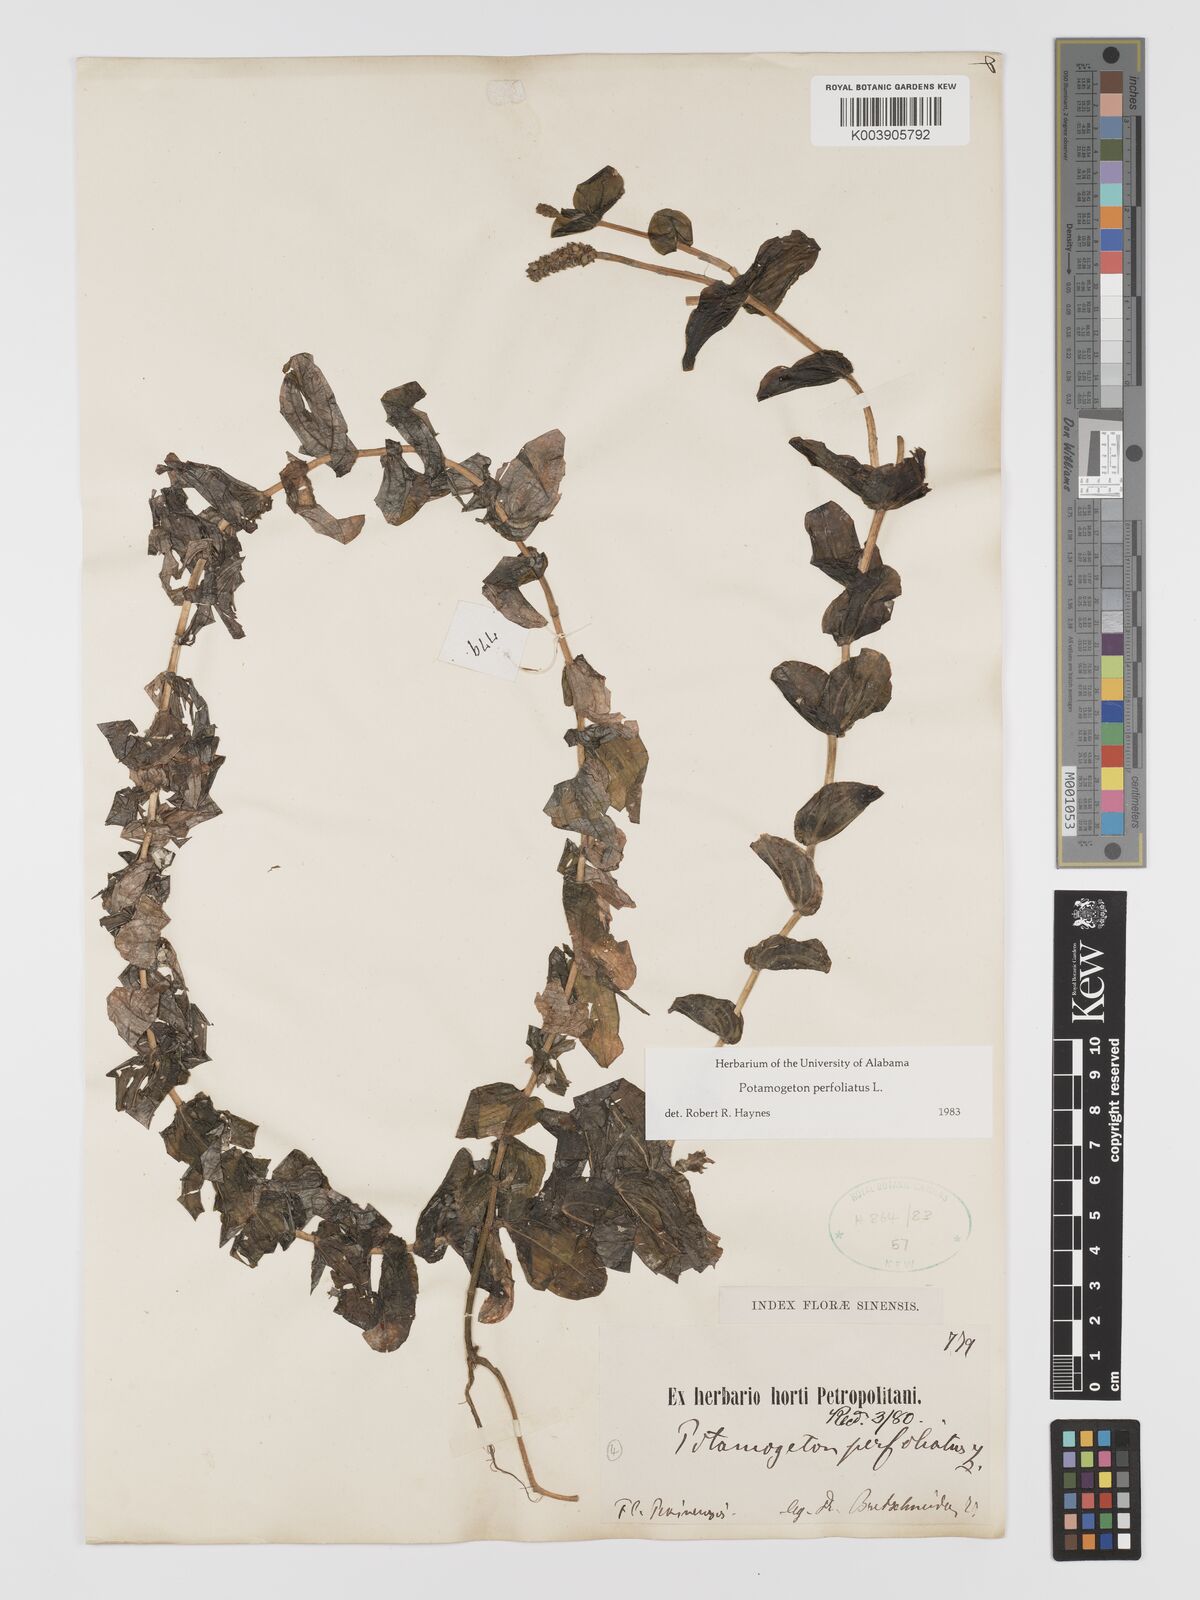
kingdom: Plantae
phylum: Tracheophyta
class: Liliopsida
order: Alismatales
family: Potamogetonaceae
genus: Potamogeton
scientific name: Potamogeton perfoliatus
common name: Perfoliate pondweed
